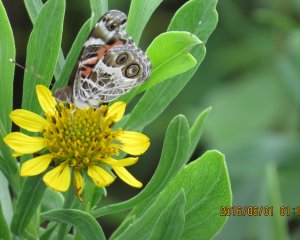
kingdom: Animalia
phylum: Arthropoda
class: Insecta
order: Lepidoptera
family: Nymphalidae
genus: Vanessa
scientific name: Vanessa virginiensis
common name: American Lady
